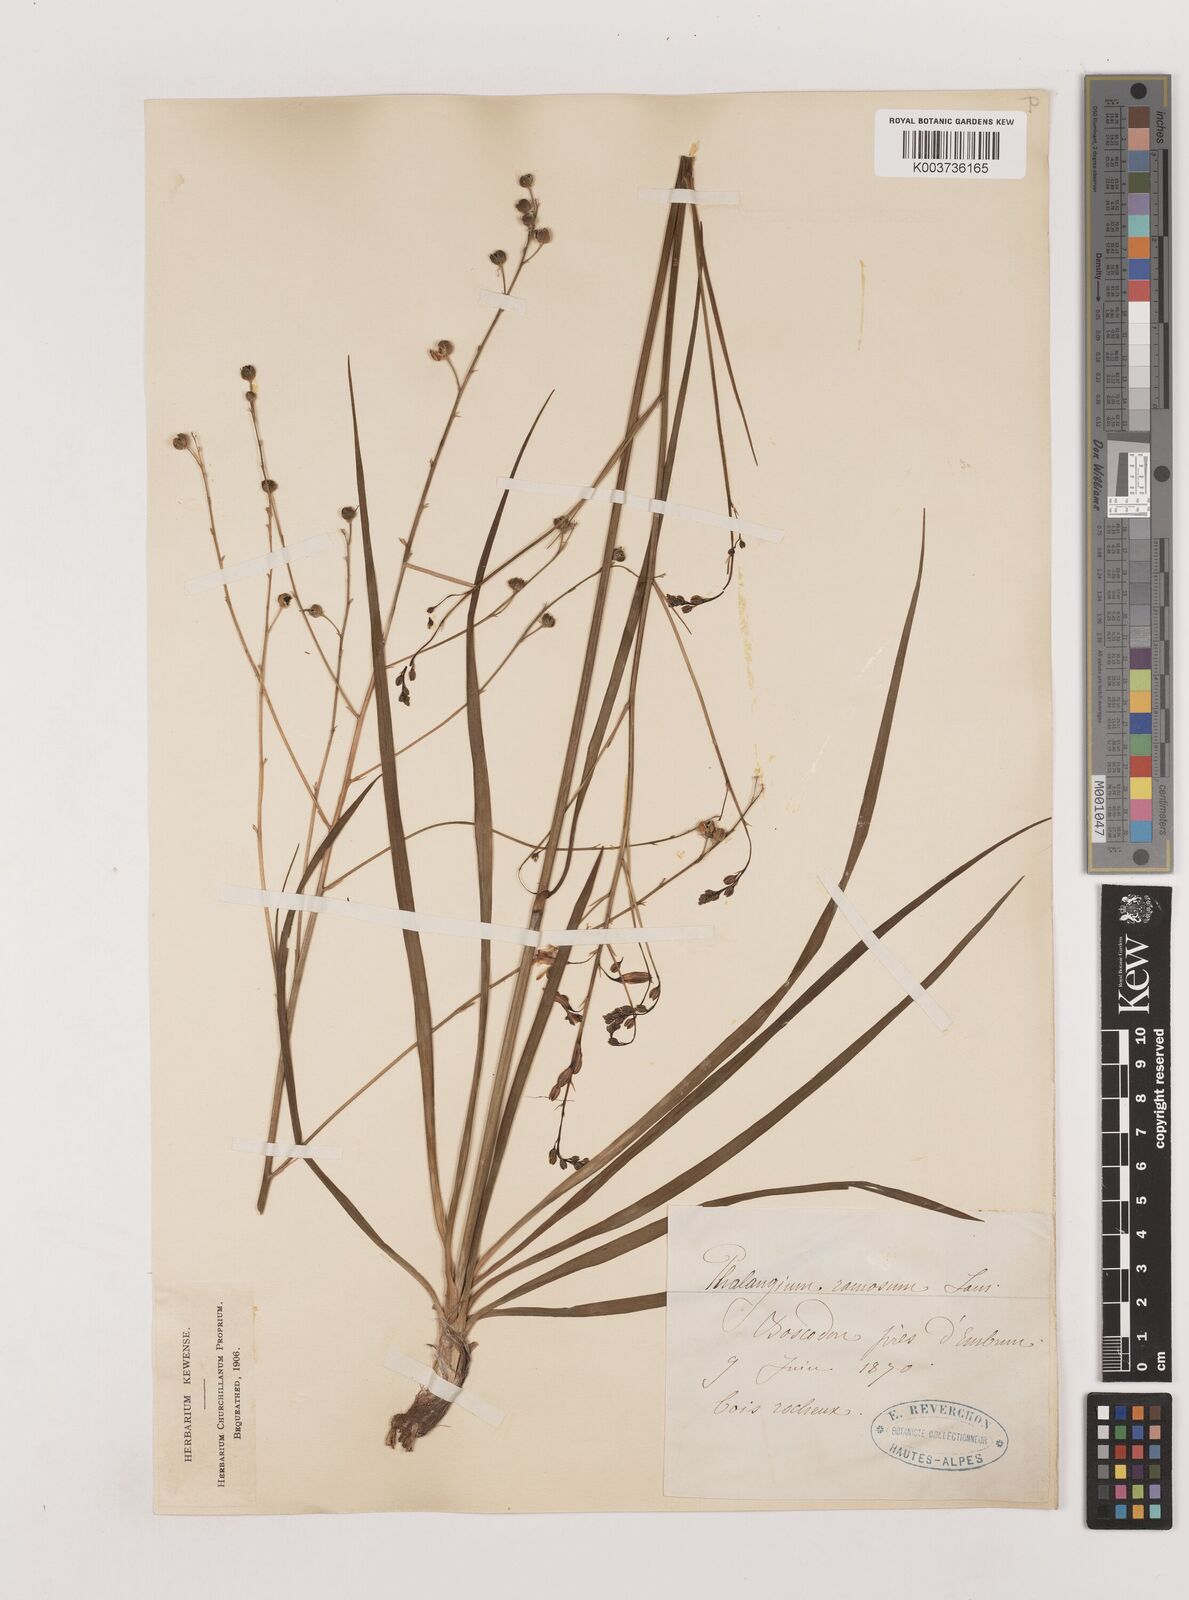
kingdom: Plantae
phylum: Tracheophyta
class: Liliopsida
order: Asparagales
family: Asparagaceae
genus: Anthericum
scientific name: Anthericum ramosum
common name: Branched st. bernard's-lily
